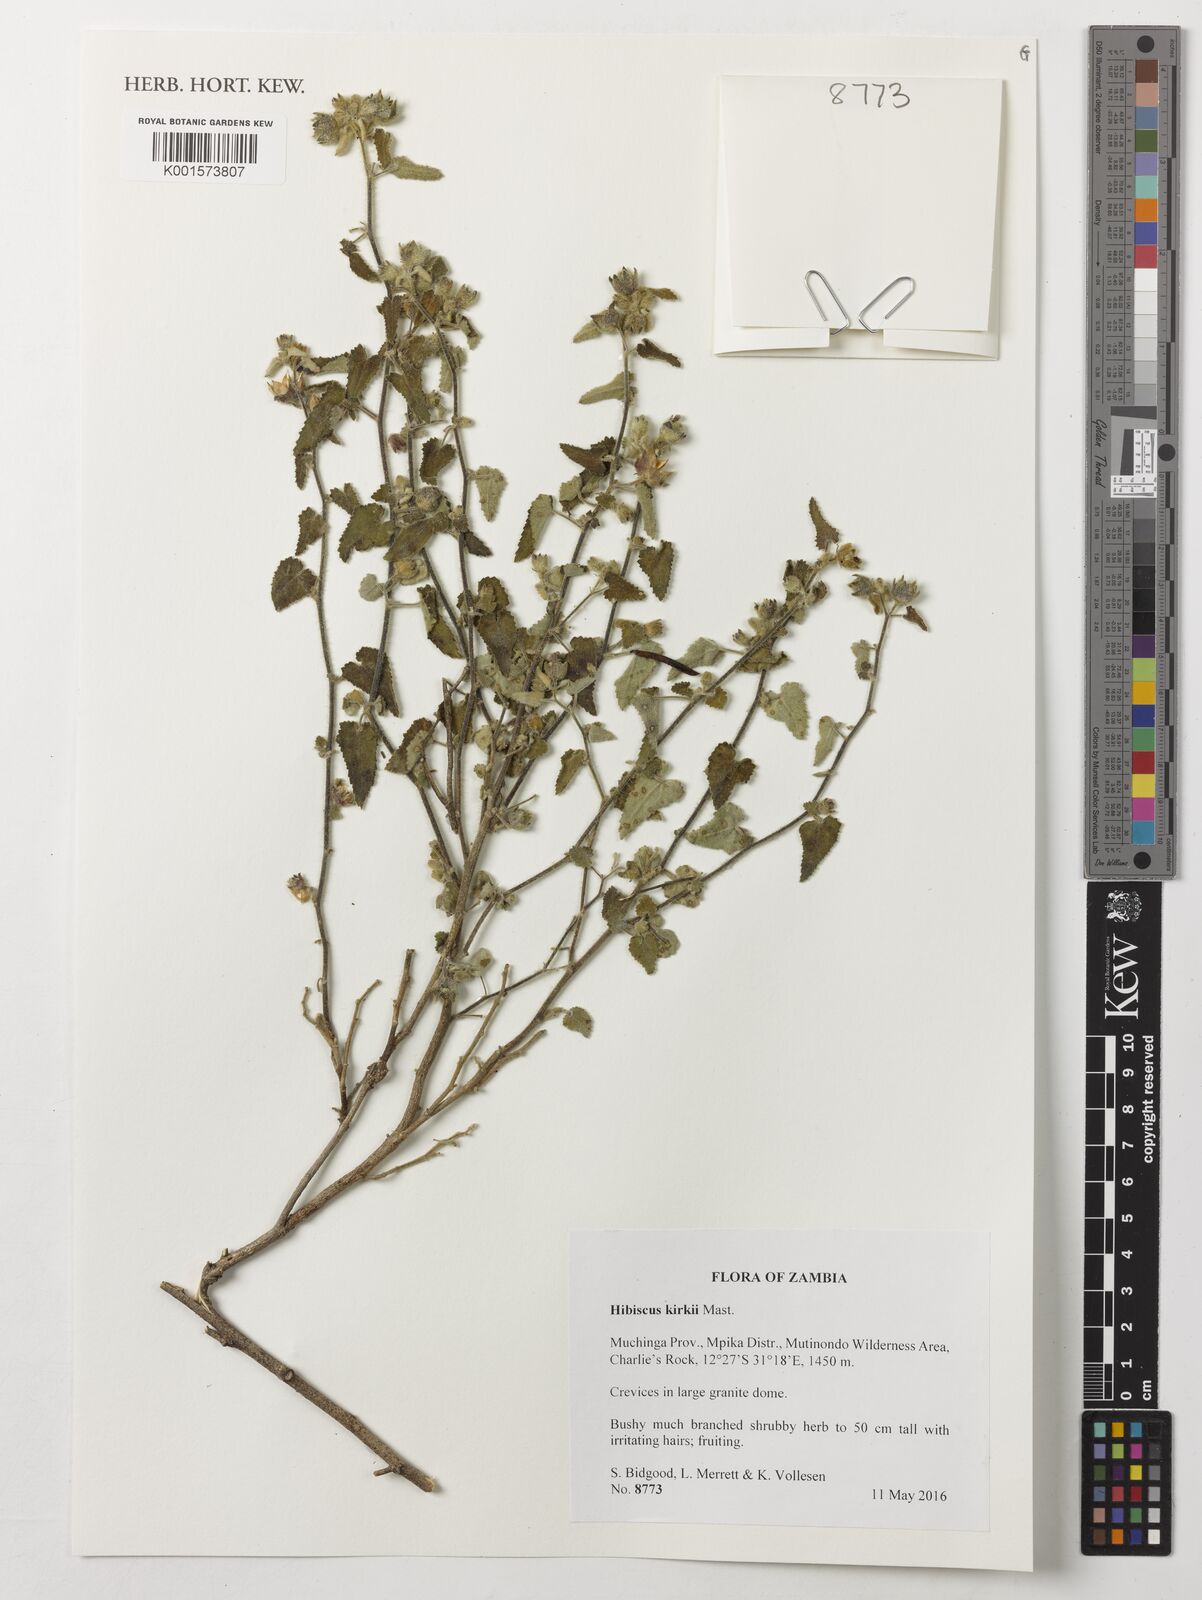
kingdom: Plantae
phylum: Tracheophyta
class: Magnoliopsida
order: Malvales
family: Malvaceae
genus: Hibiscus
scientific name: Hibiscus kirkii
